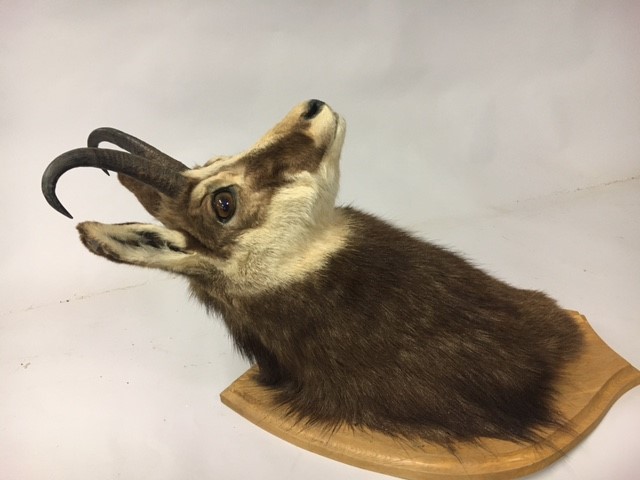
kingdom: Animalia
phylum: Chordata
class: Mammalia
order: Artiodactyla
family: Bovidae
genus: Rupicapra
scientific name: Rupicapra rupicapra
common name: Chamois
